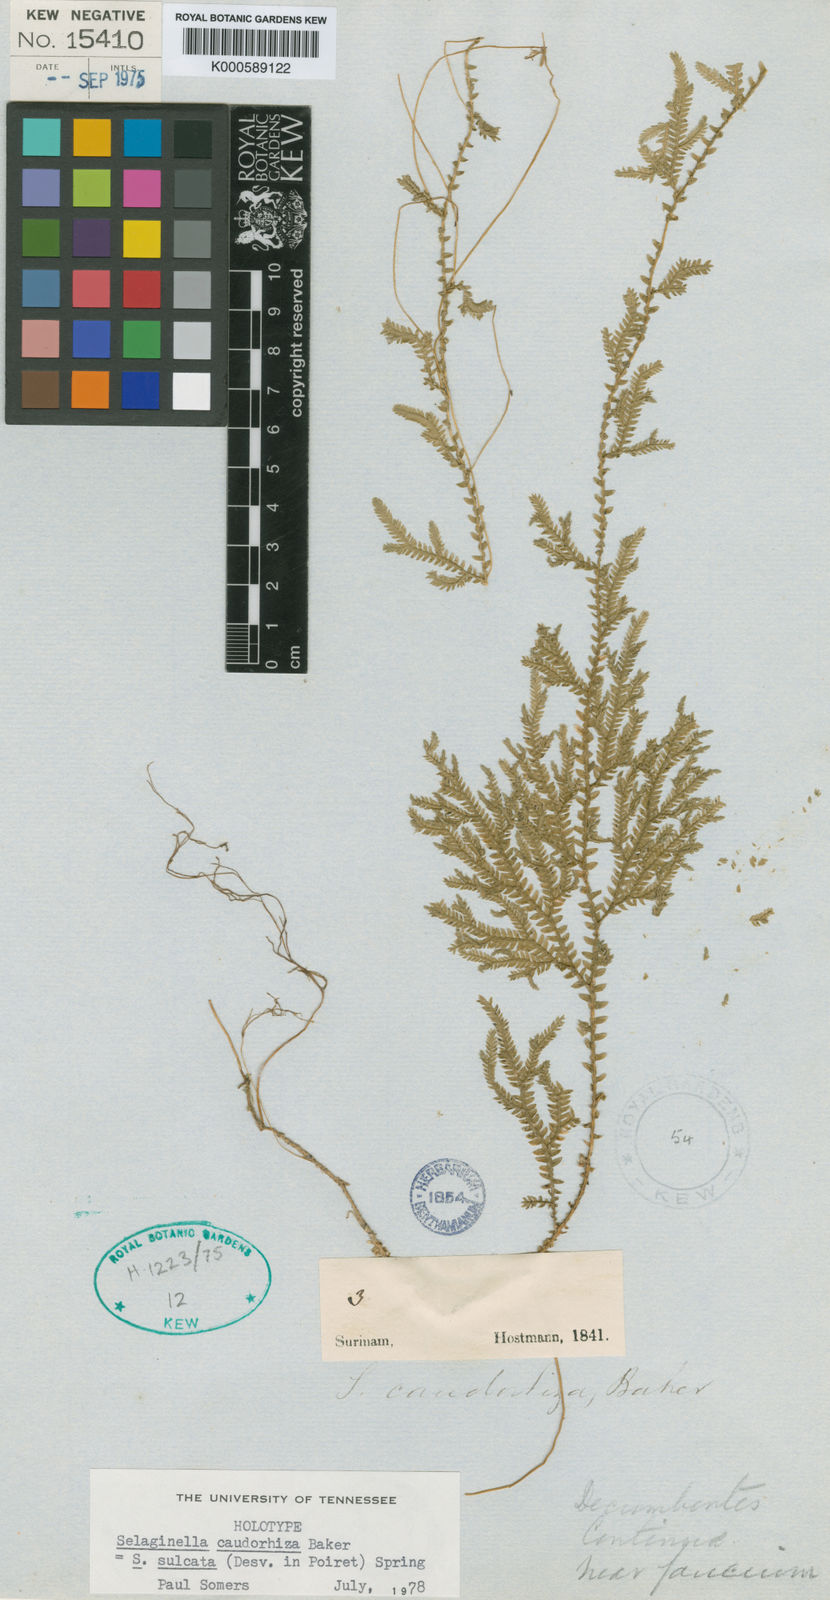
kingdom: Plantae
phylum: Tracheophyta
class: Lycopodiopsida
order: Selaginellales
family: Selaginellaceae
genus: Selaginella
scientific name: Selaginella sulcata
